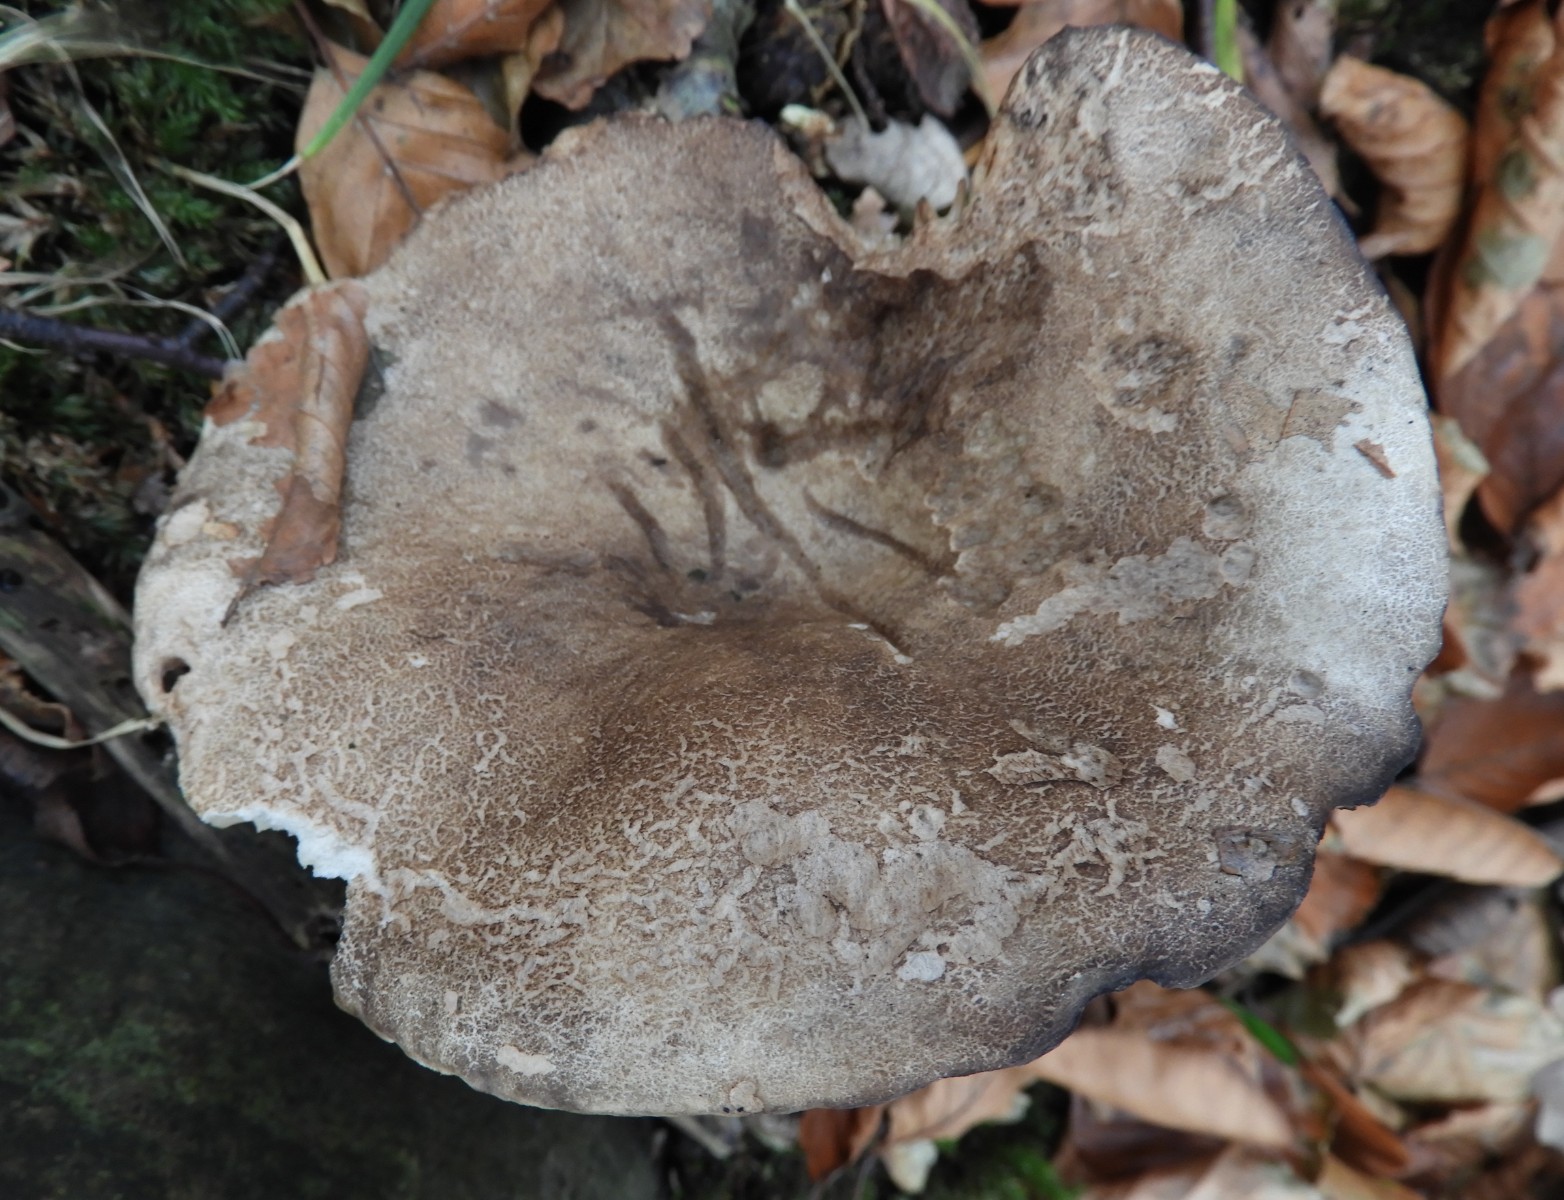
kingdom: Fungi
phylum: Basidiomycota
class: Agaricomycetes
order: Russulales
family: Russulaceae
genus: Russula
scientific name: Russula adusta
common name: sværtende skørhat
